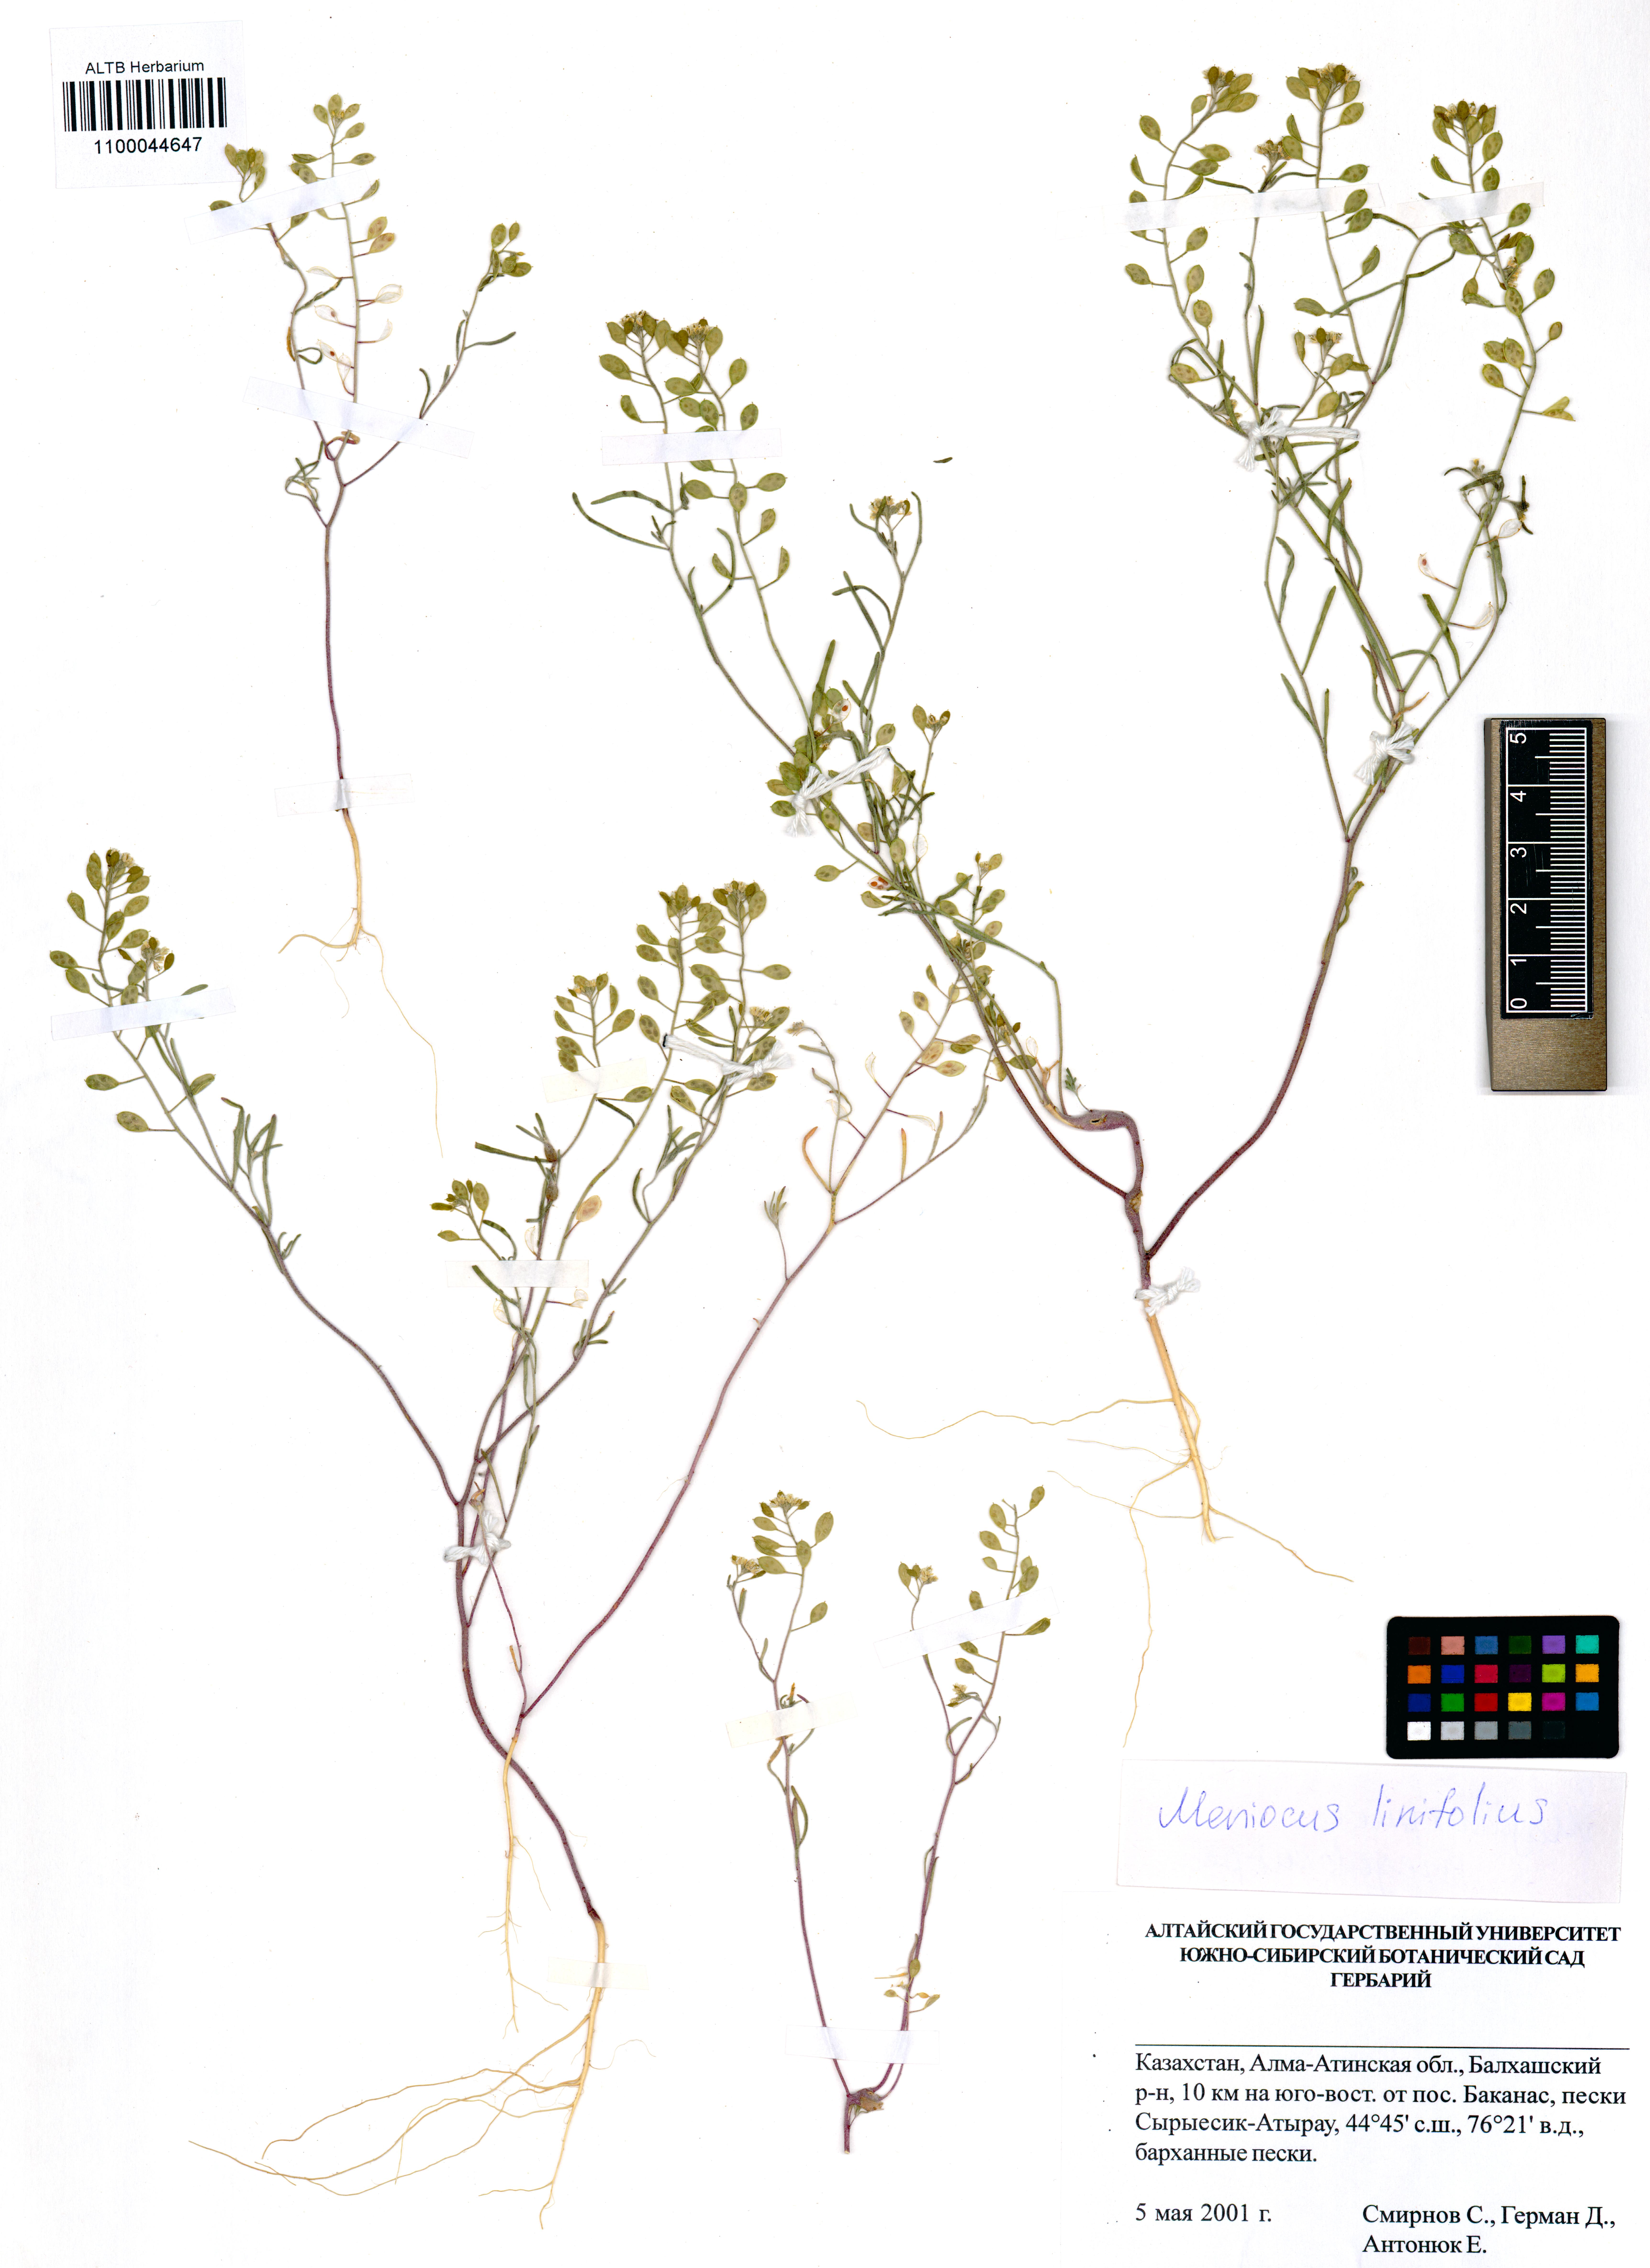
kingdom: Plantae
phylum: Tracheophyta
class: Magnoliopsida
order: Brassicales
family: Brassicaceae
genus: Meniocus
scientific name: Meniocus linifolius
